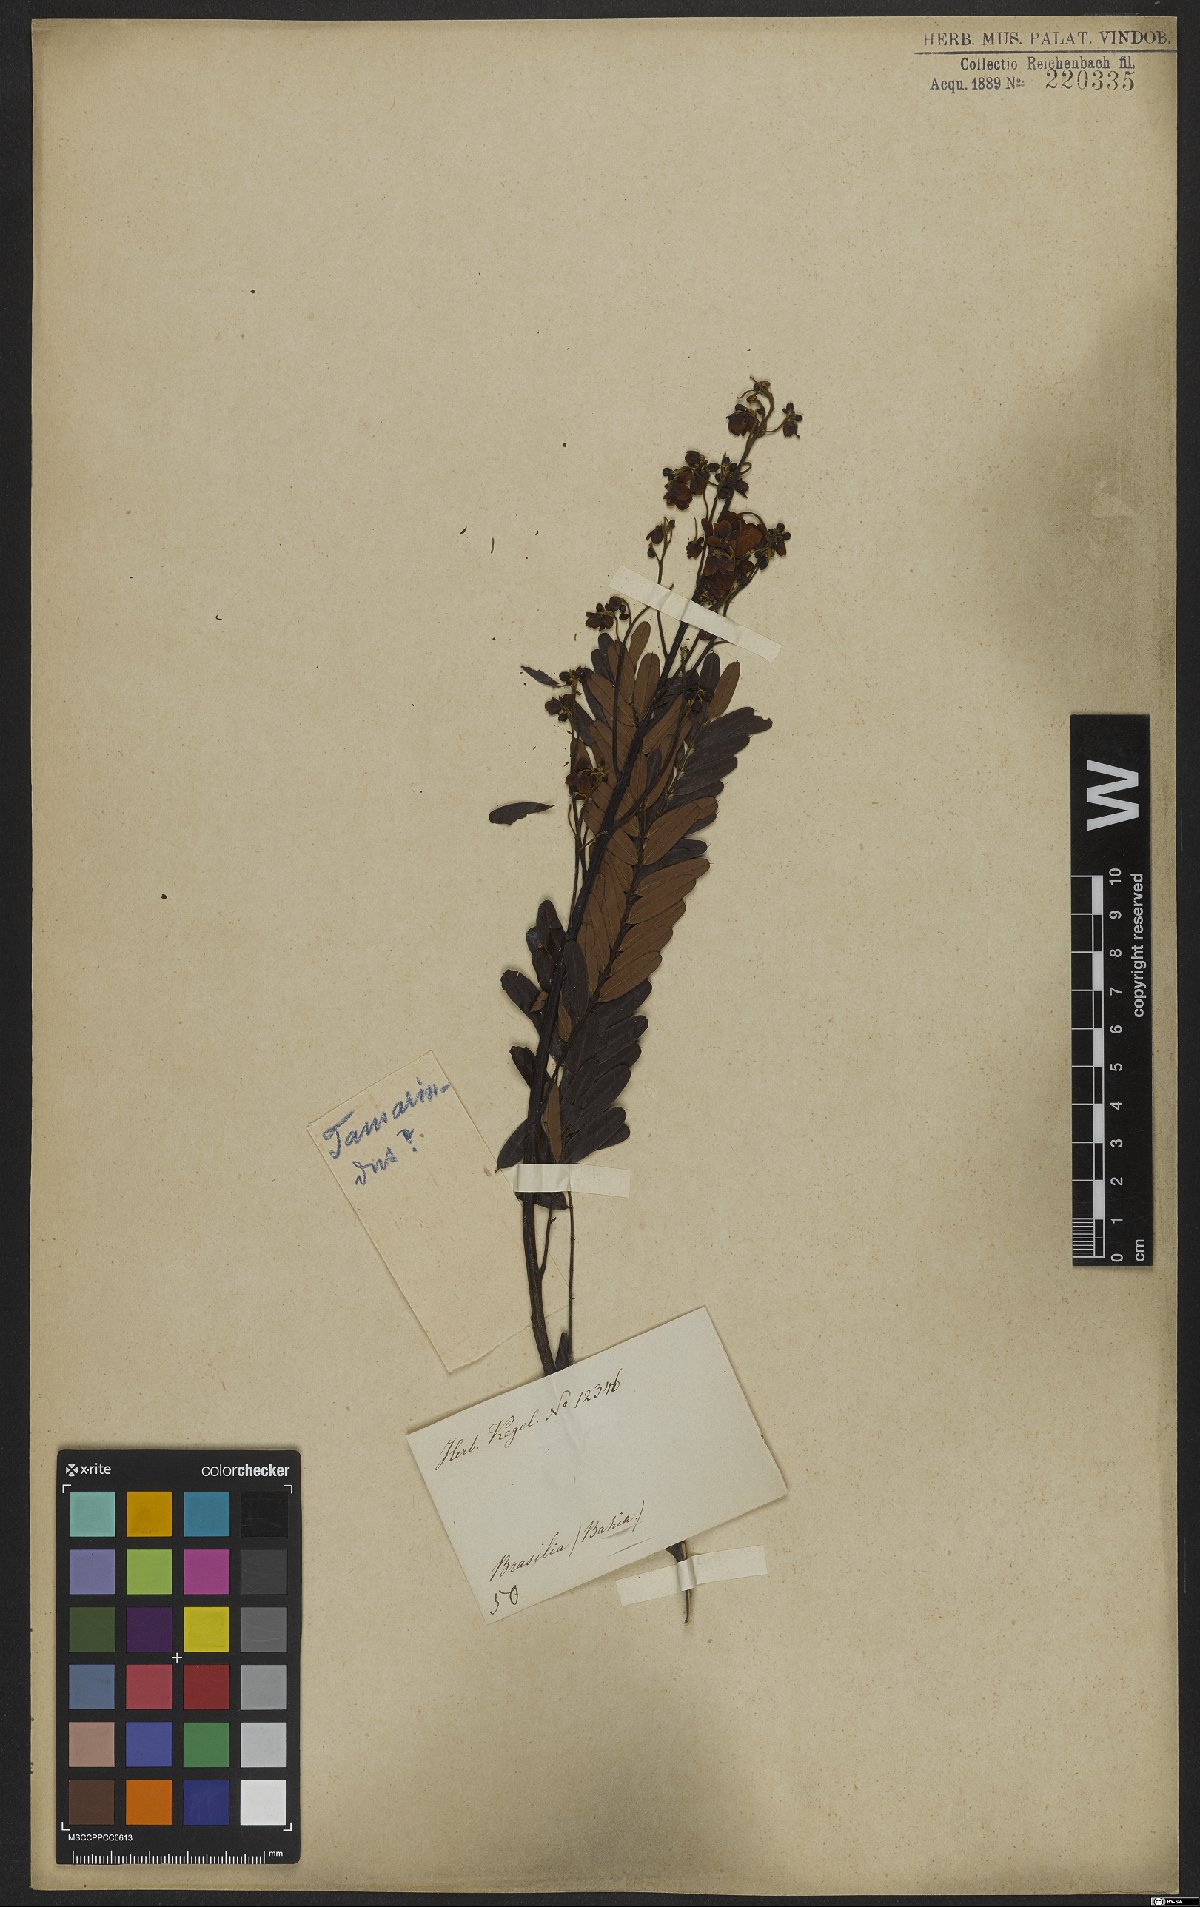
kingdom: Plantae
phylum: Tracheophyta
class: Magnoliopsida
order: Fabales
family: Fabaceae
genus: Tamarindus
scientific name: Tamarindus
